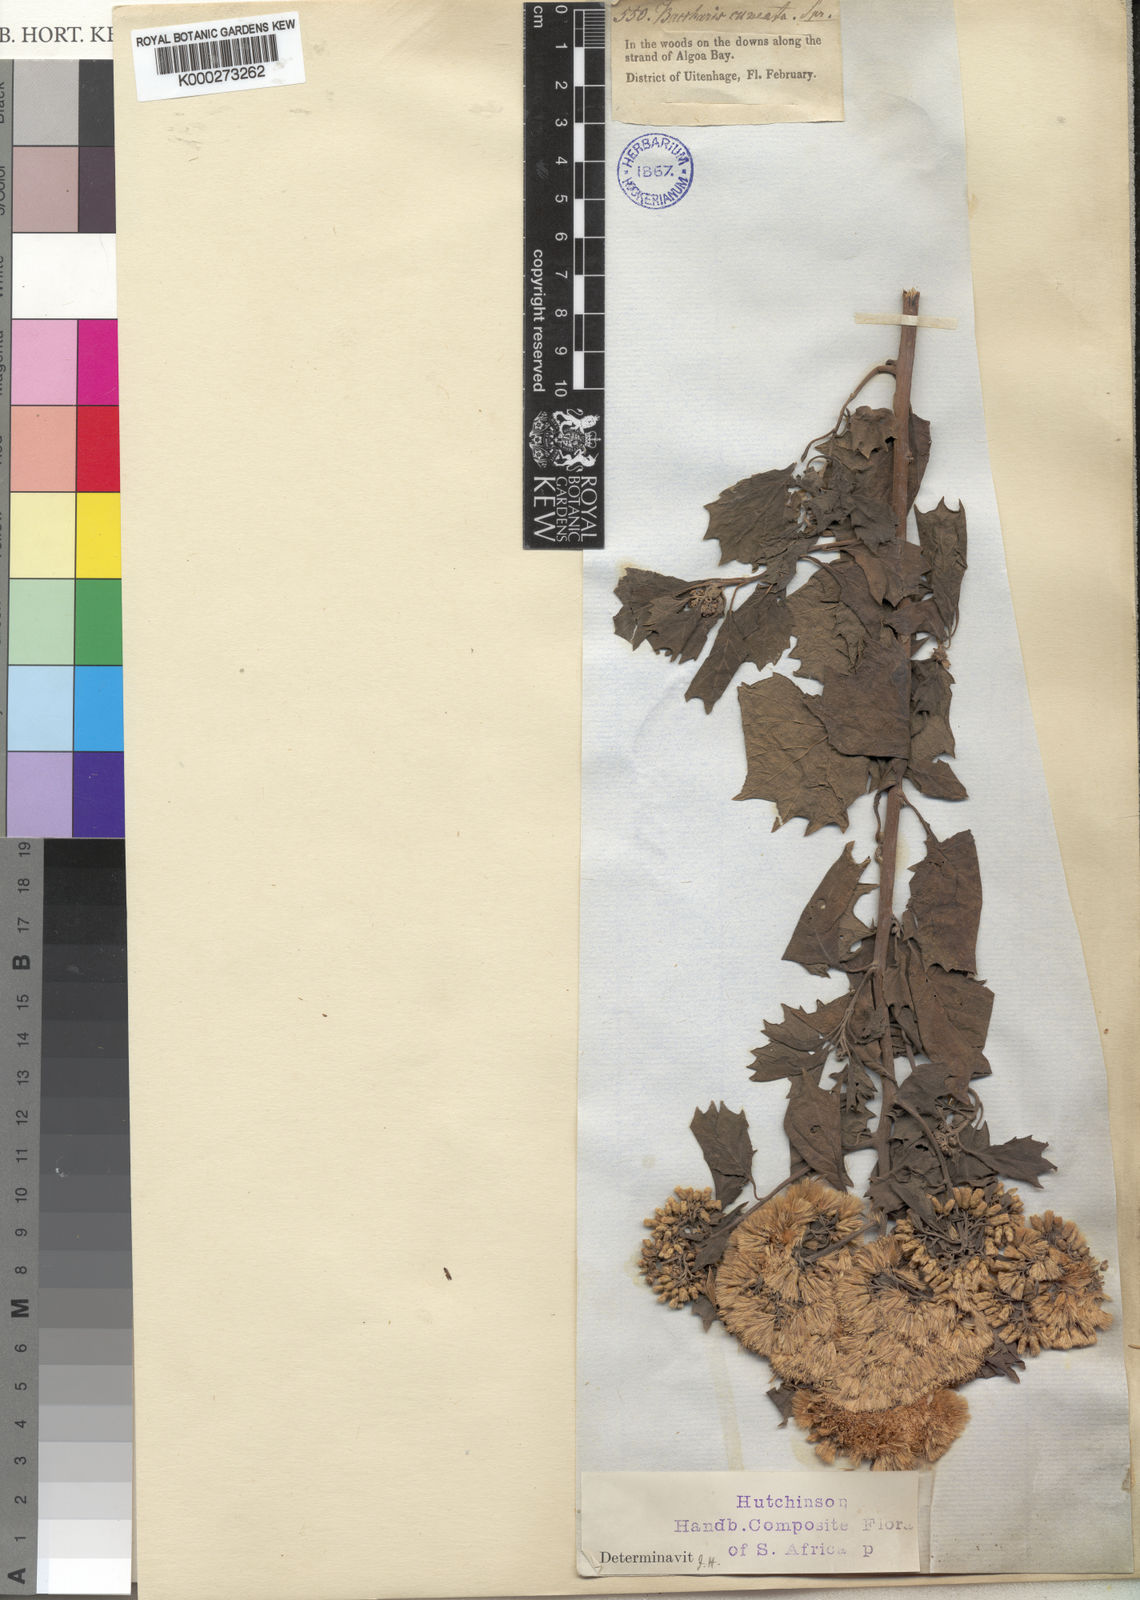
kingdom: Plantae
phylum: Tracheophyta
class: Magnoliopsida
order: Asterales
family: Asteraceae
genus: Gymnanthemum
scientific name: Gymnanthemum capense
